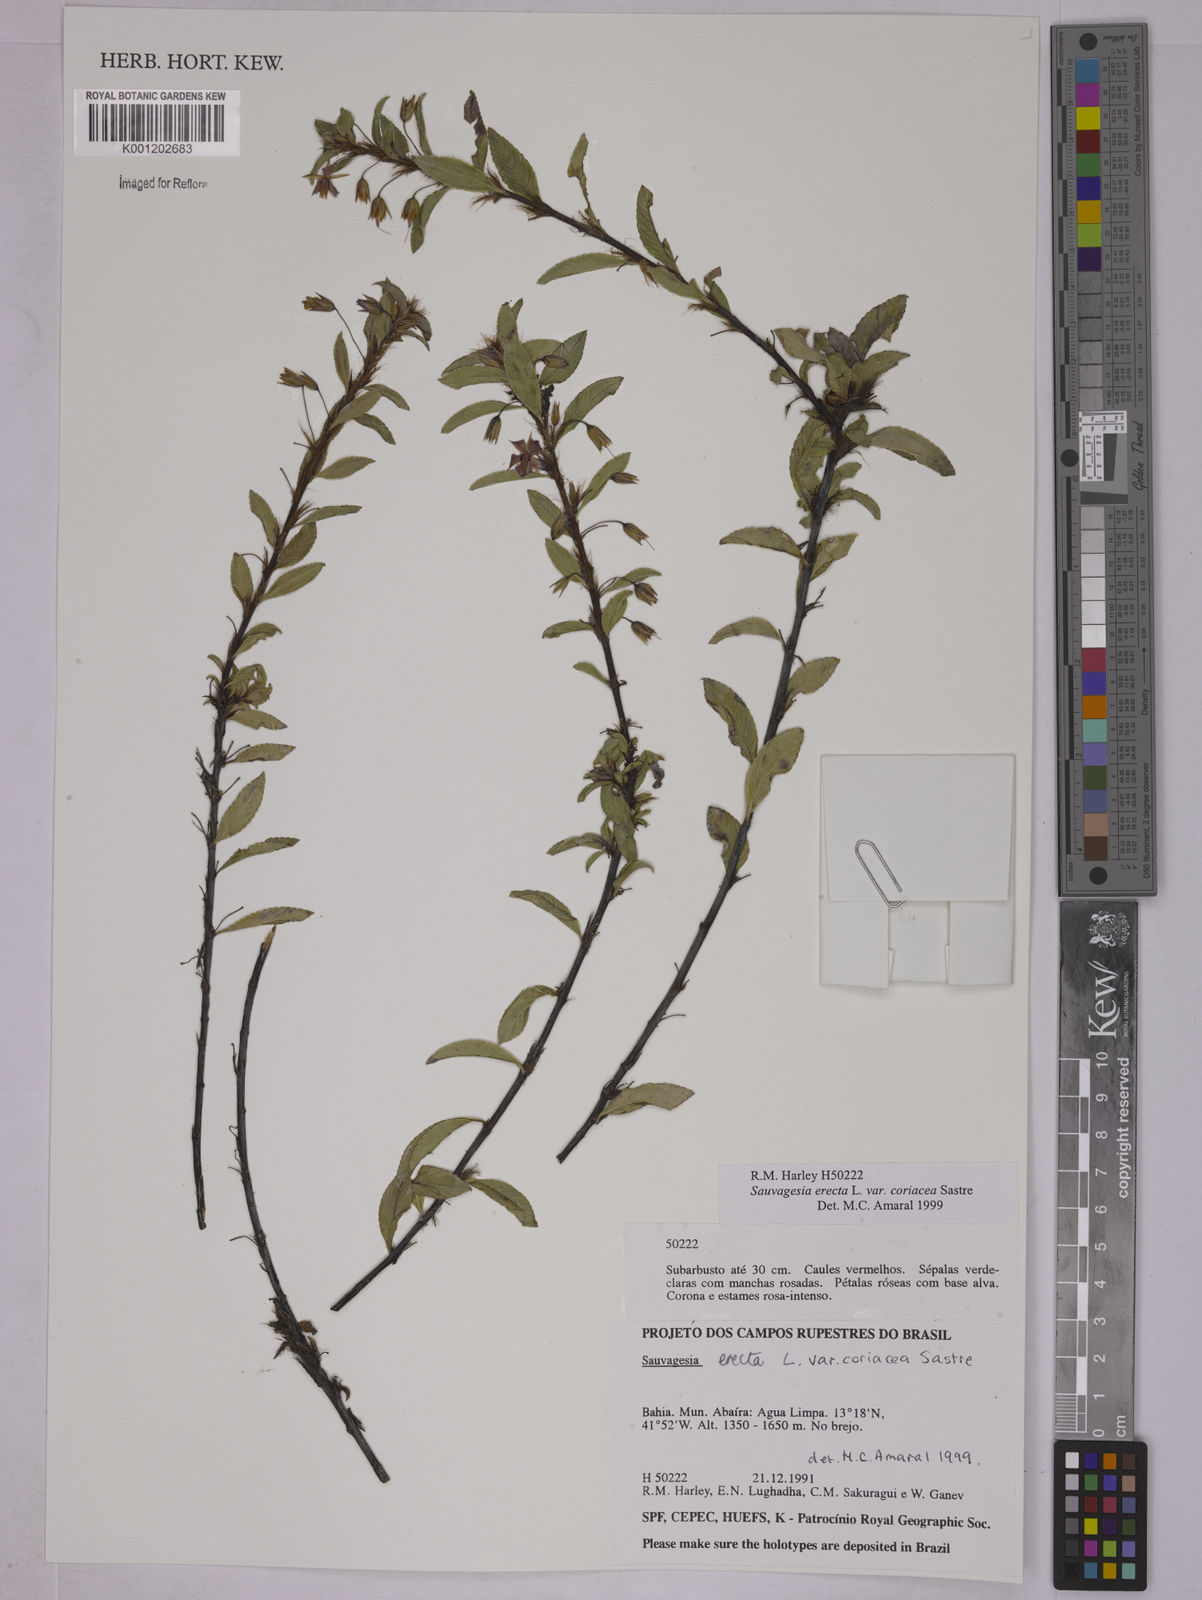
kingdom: Plantae
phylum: Tracheophyta
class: Magnoliopsida
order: Malpighiales
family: Ochnaceae
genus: Sauvagesia
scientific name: Sauvagesia erecta
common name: Creole tea
